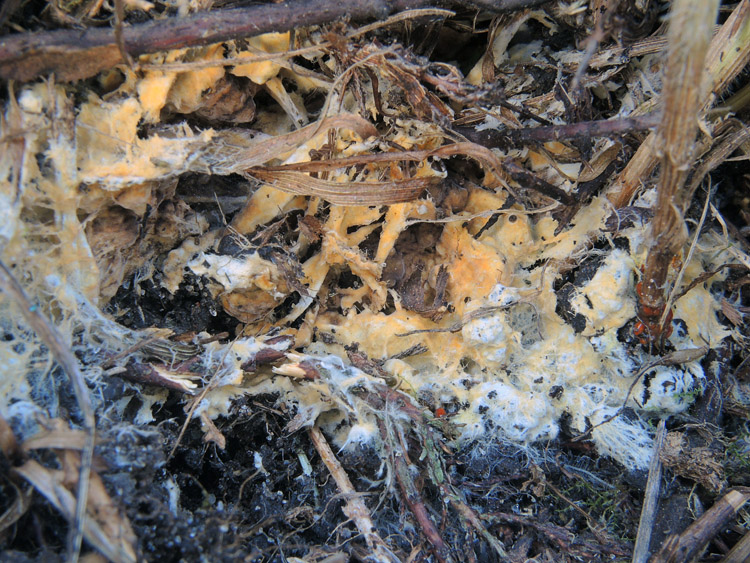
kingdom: Fungi
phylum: Basidiomycota
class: Agaricomycetes
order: Boletales
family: Coniophoraceae
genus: Coniophora
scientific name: Coniophora fusispora
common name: tensporet tømmersvamp
